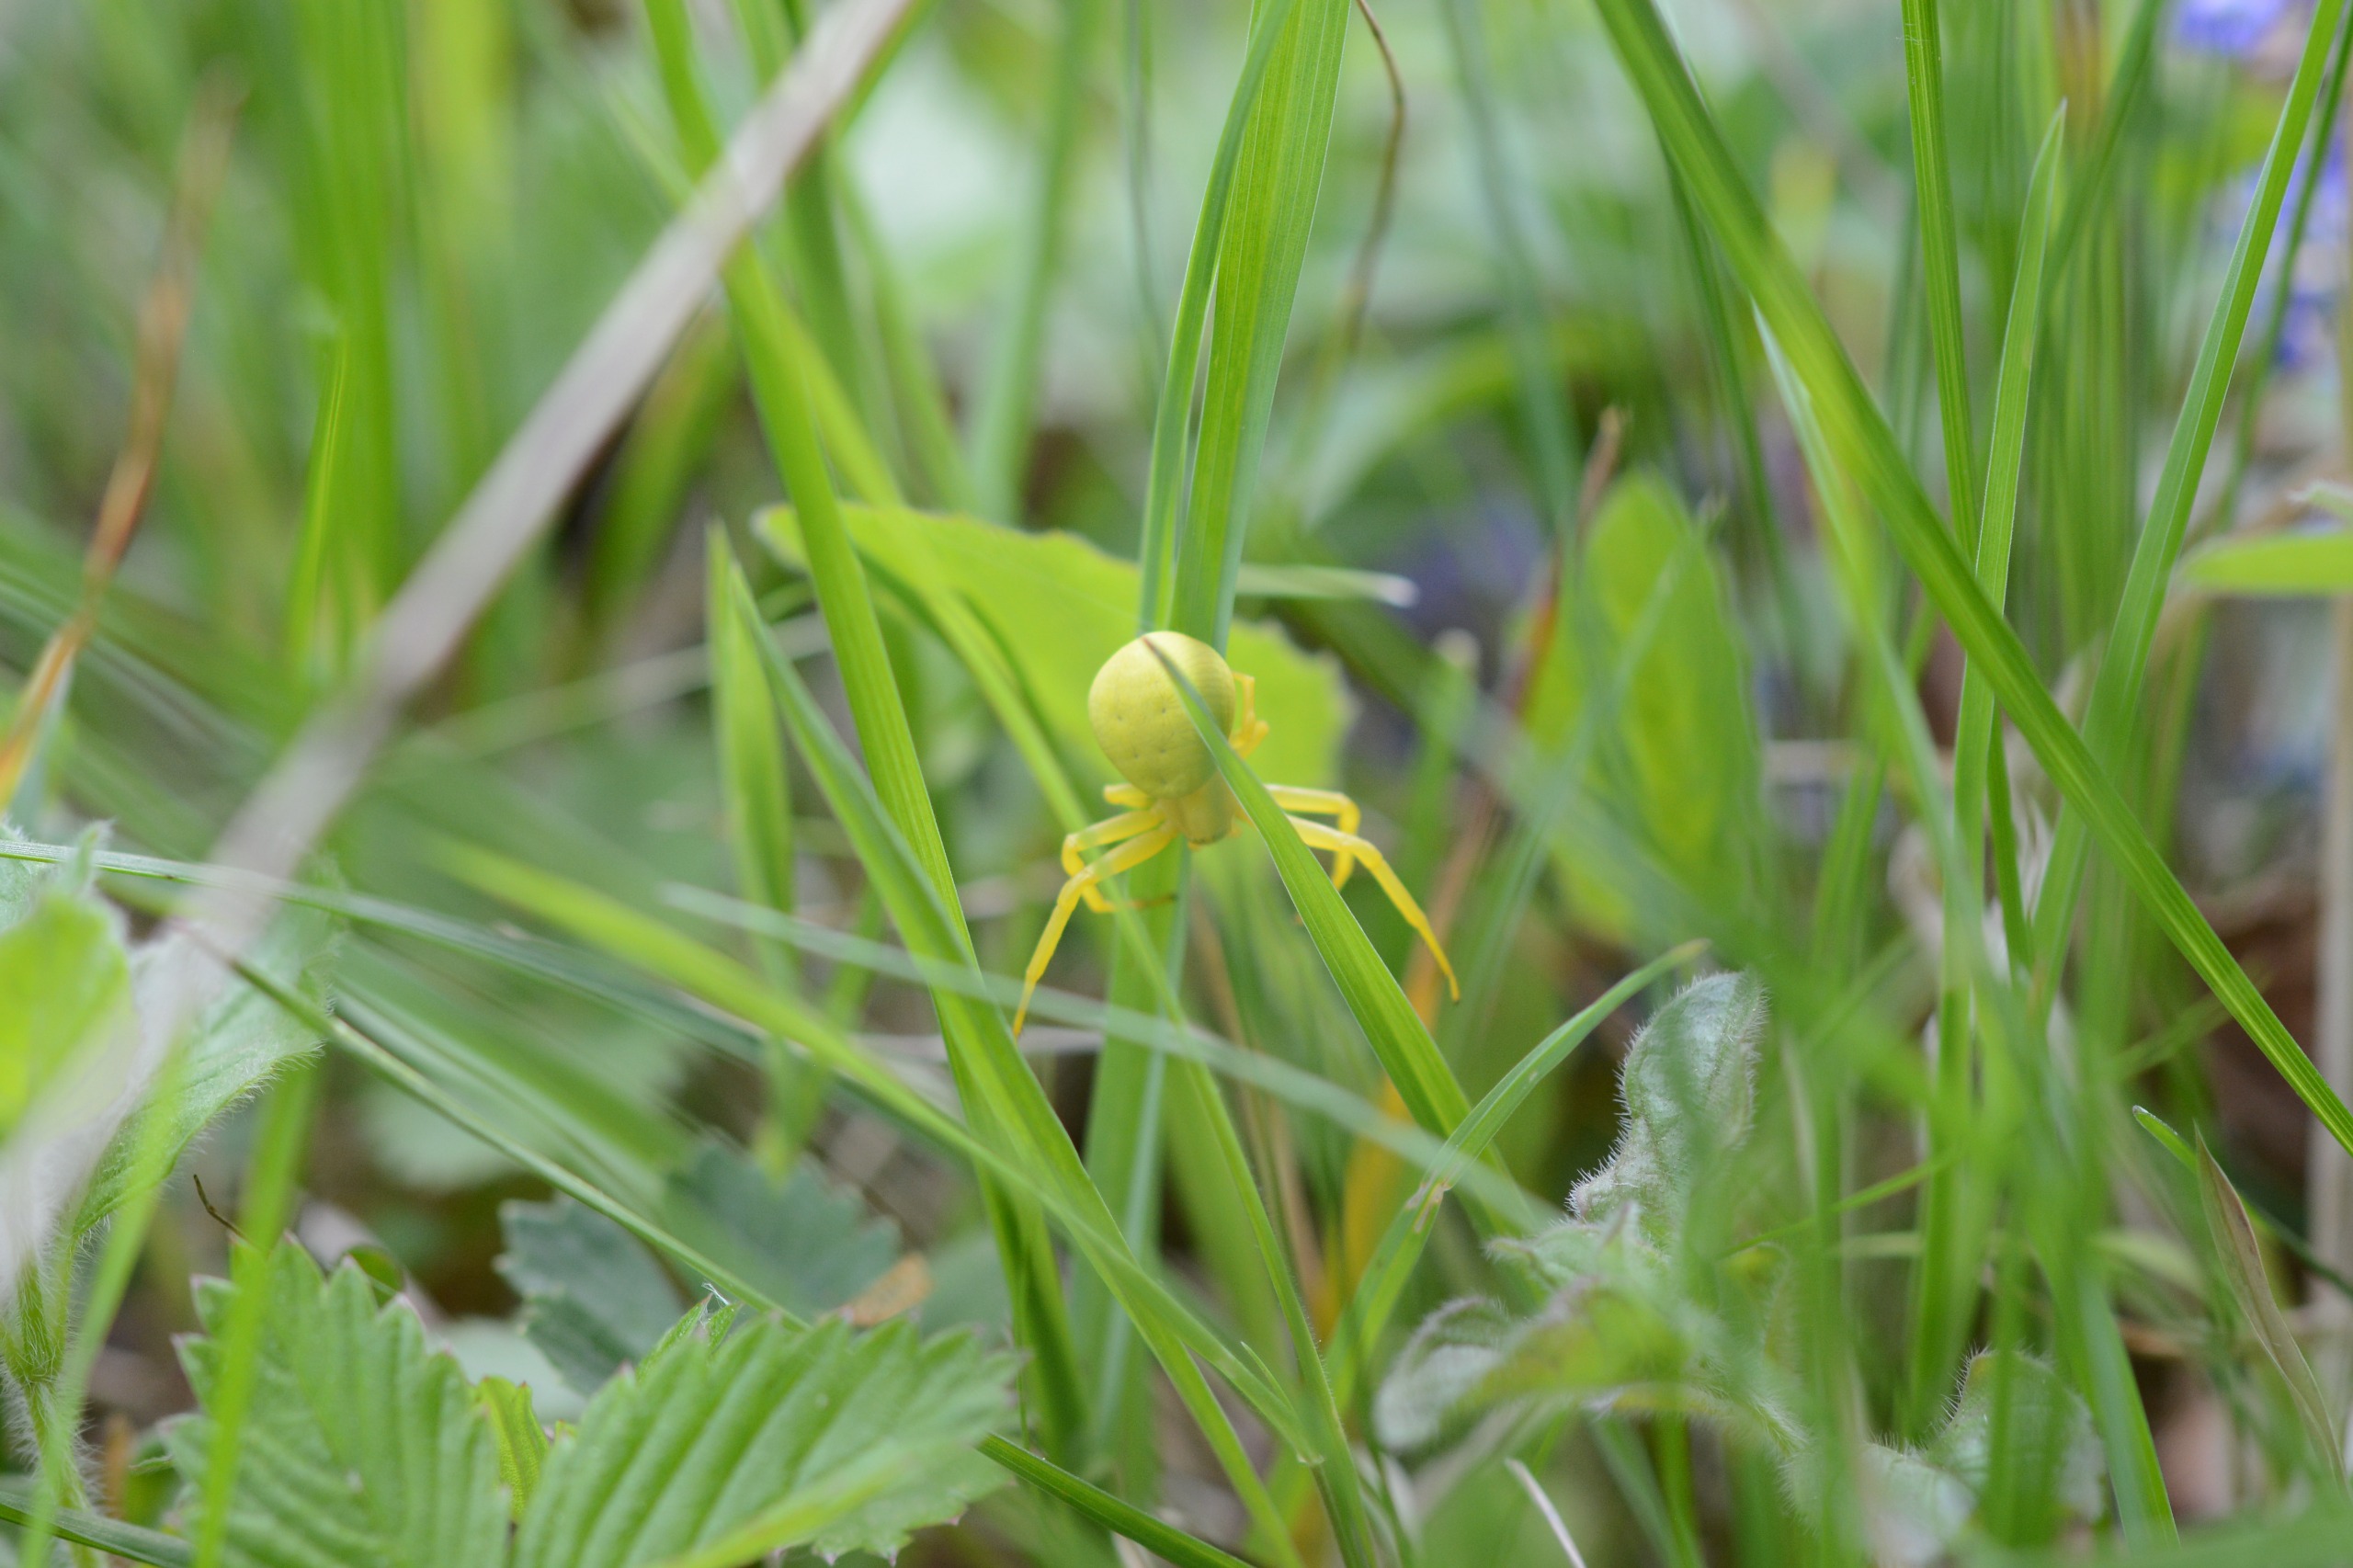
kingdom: Animalia
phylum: Arthropoda
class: Arachnida
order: Araneae
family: Thomisidae
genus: Misumena
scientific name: Misumena vatia
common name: Kamæleonedderkop
